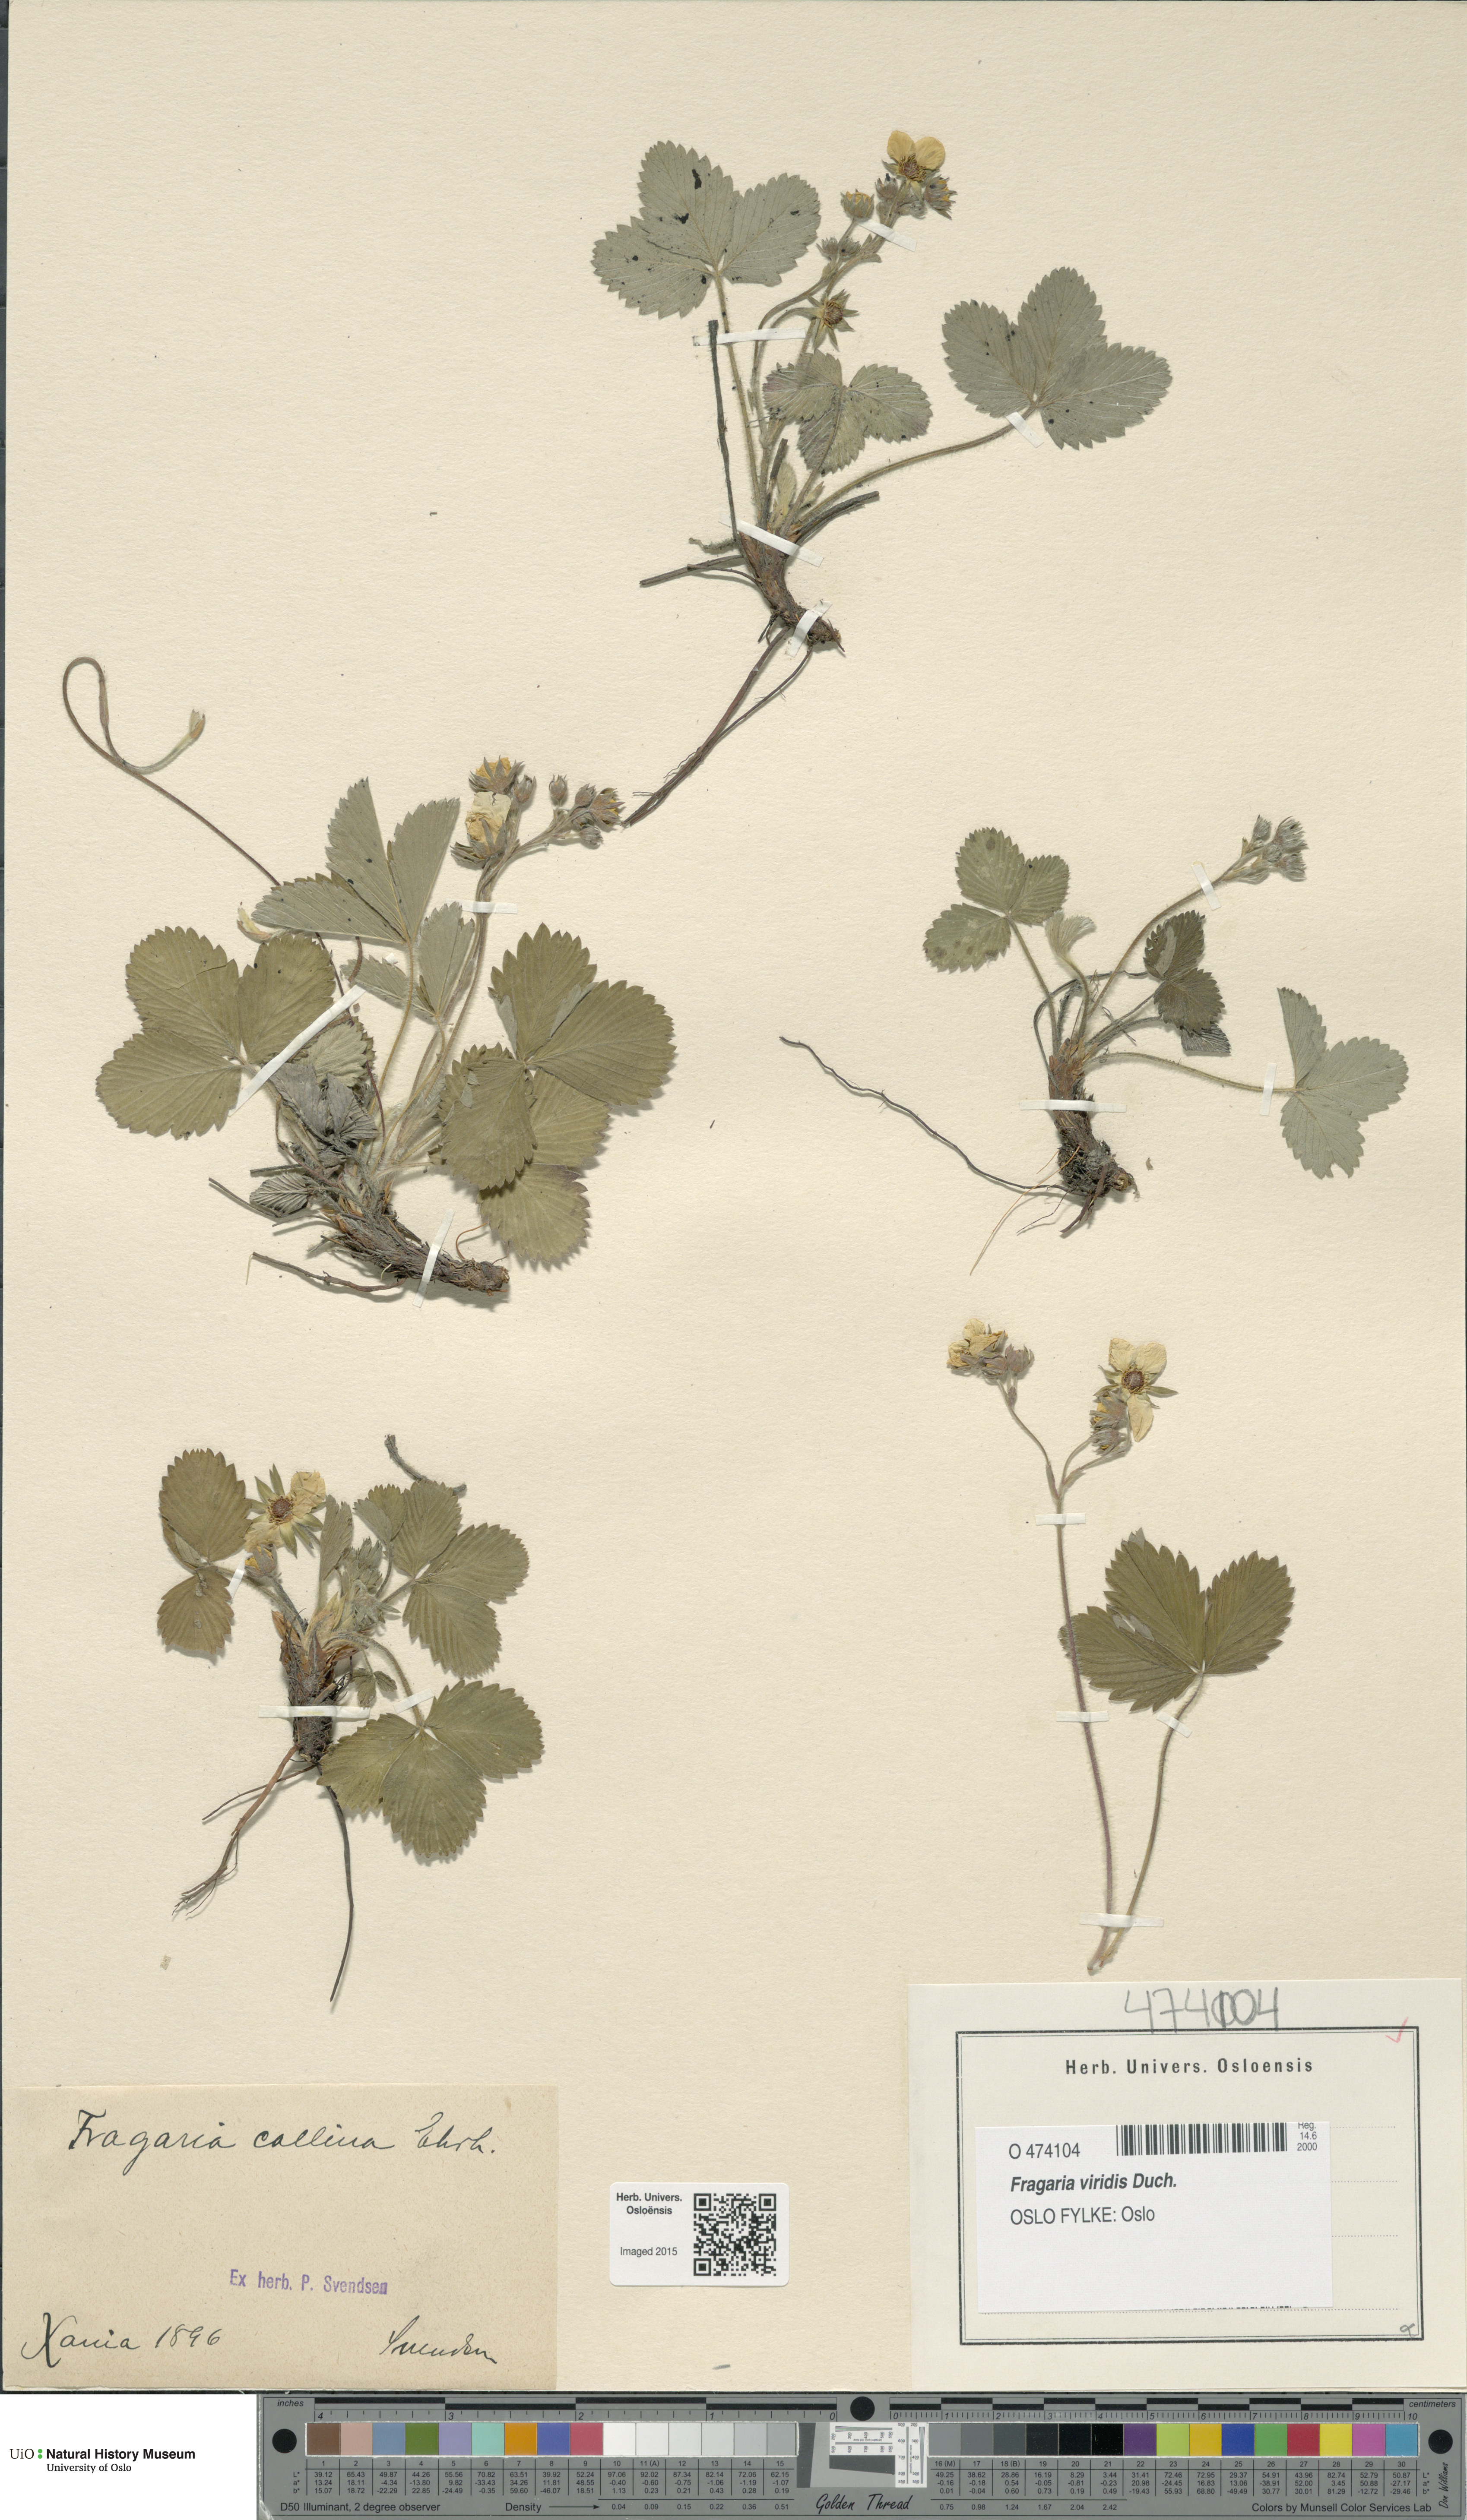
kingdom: Plantae
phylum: Tracheophyta
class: Magnoliopsida
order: Rosales
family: Rosaceae
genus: Fragaria
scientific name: Fragaria viridis
